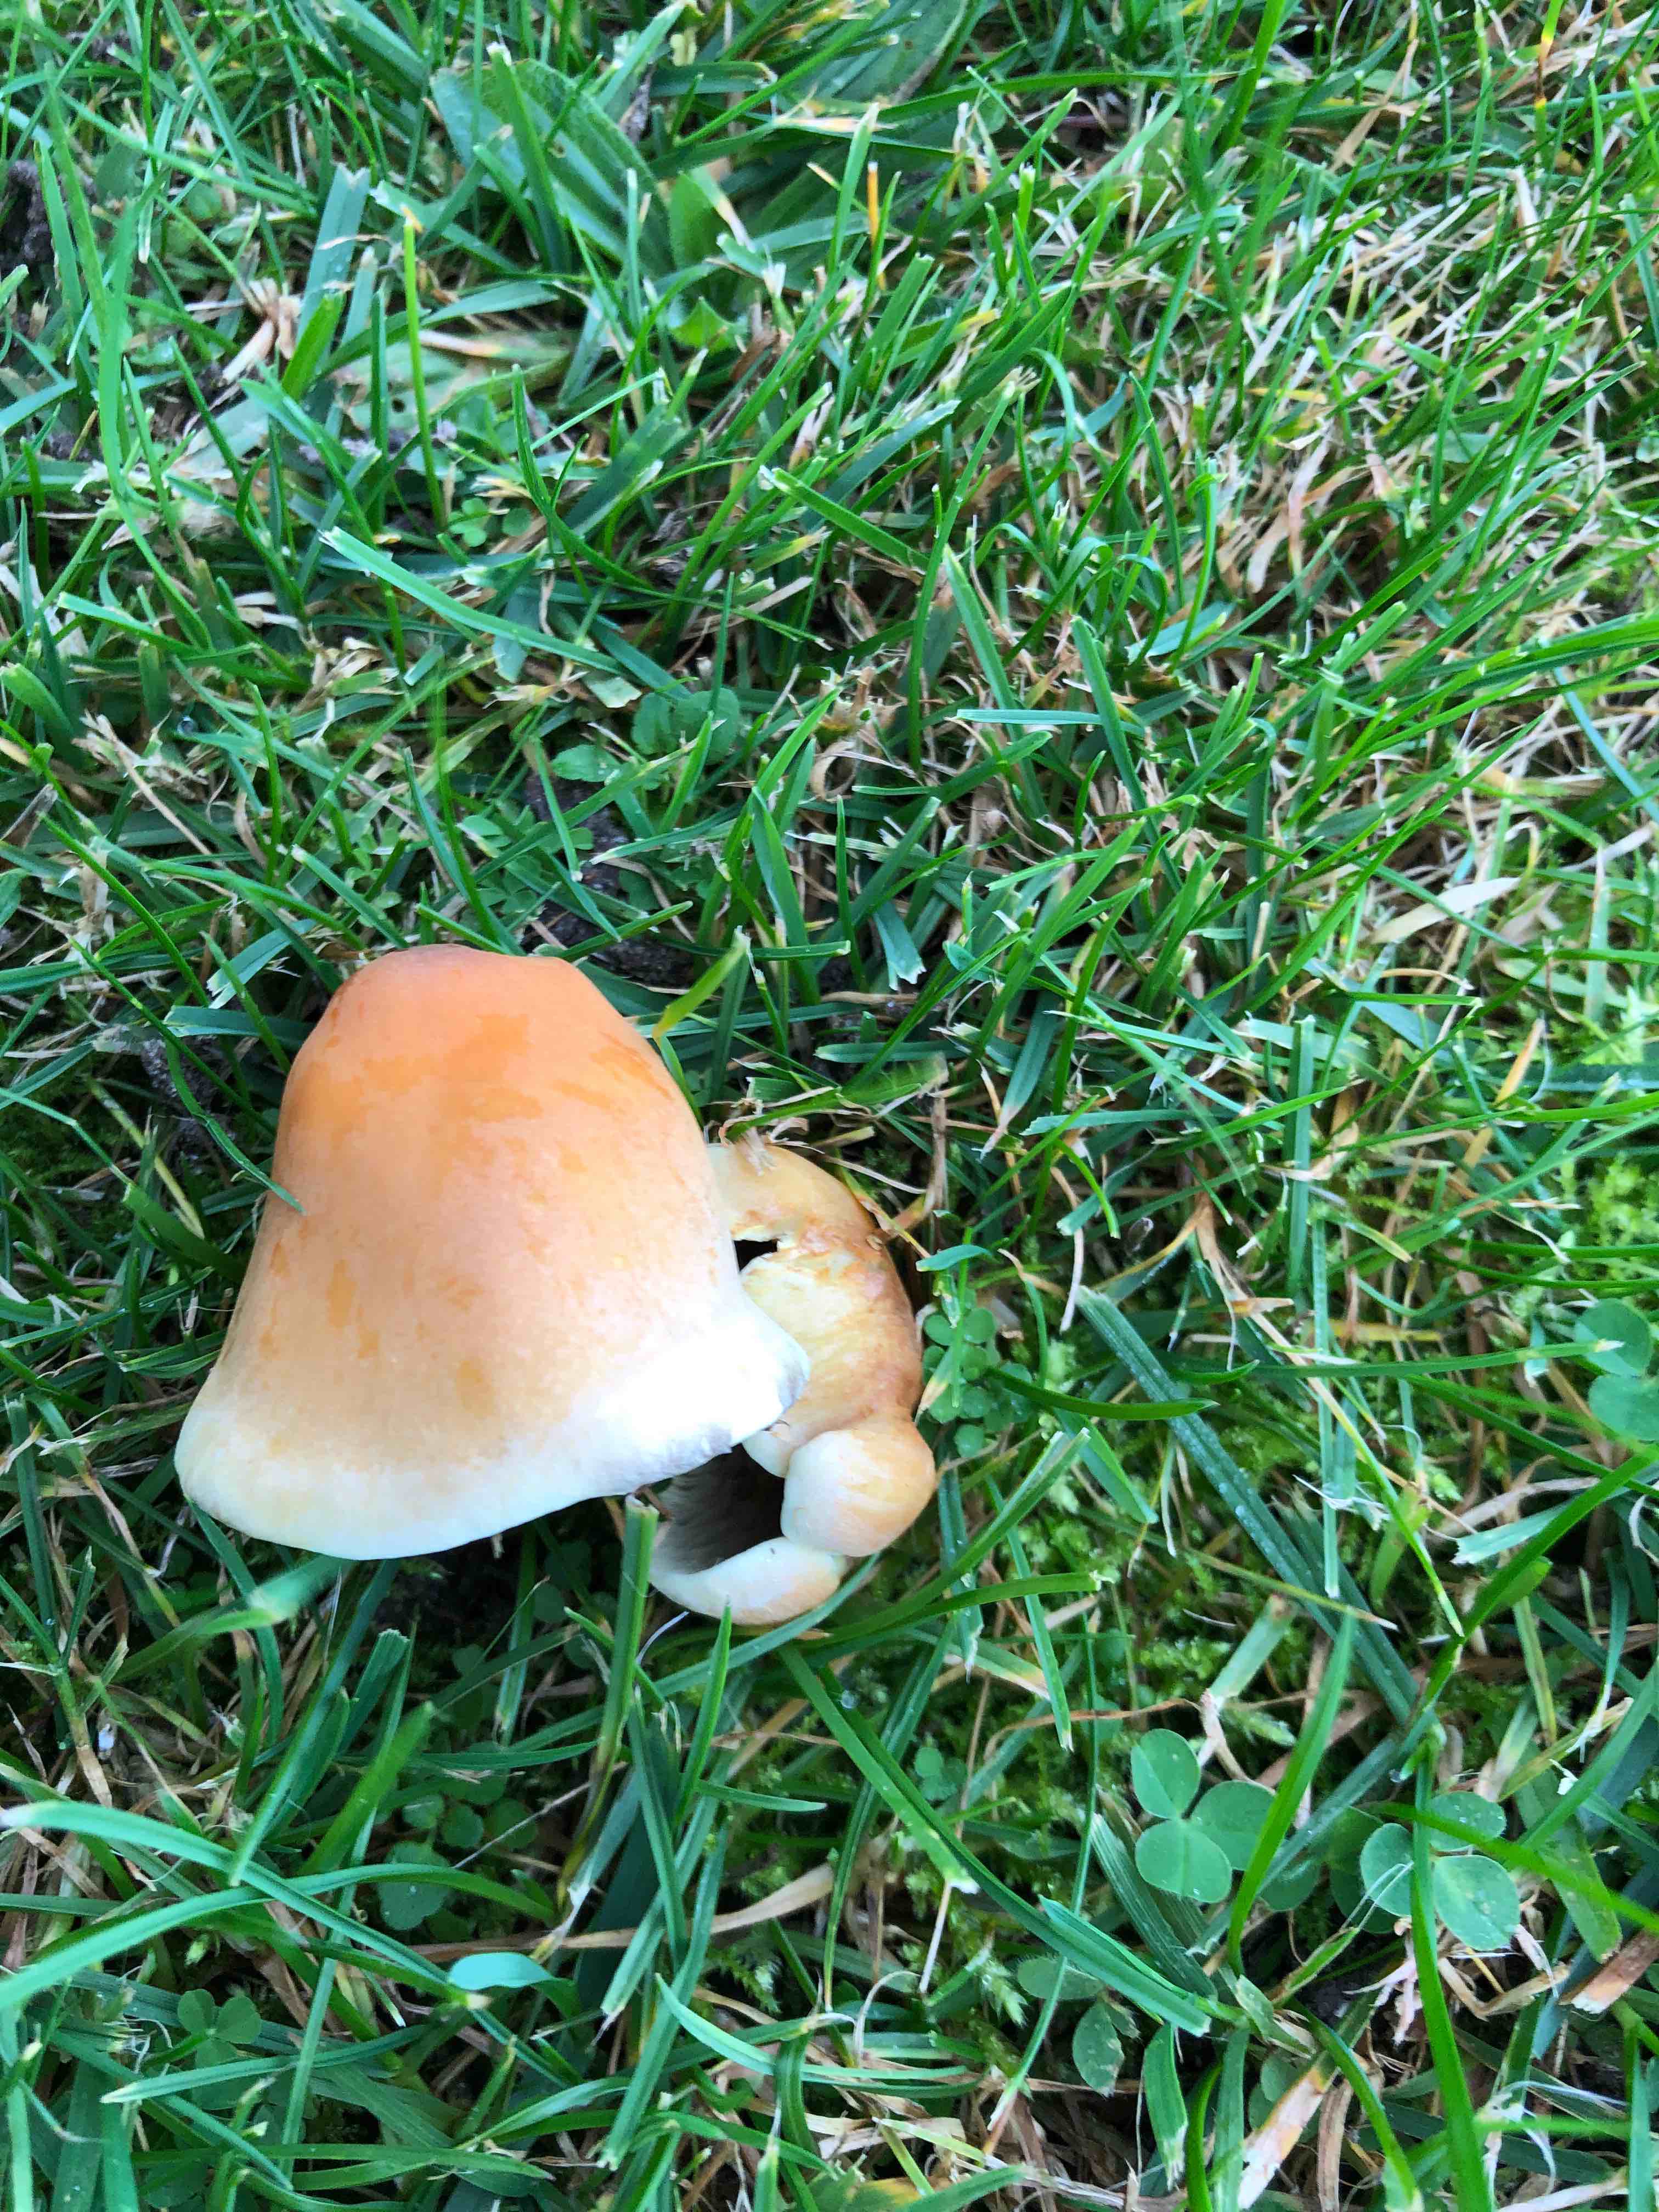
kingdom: Fungi
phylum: Basidiomycota
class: Agaricomycetes
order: Agaricales
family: Strophariaceae
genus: Hypholoma
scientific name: Hypholoma
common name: svovlhat
